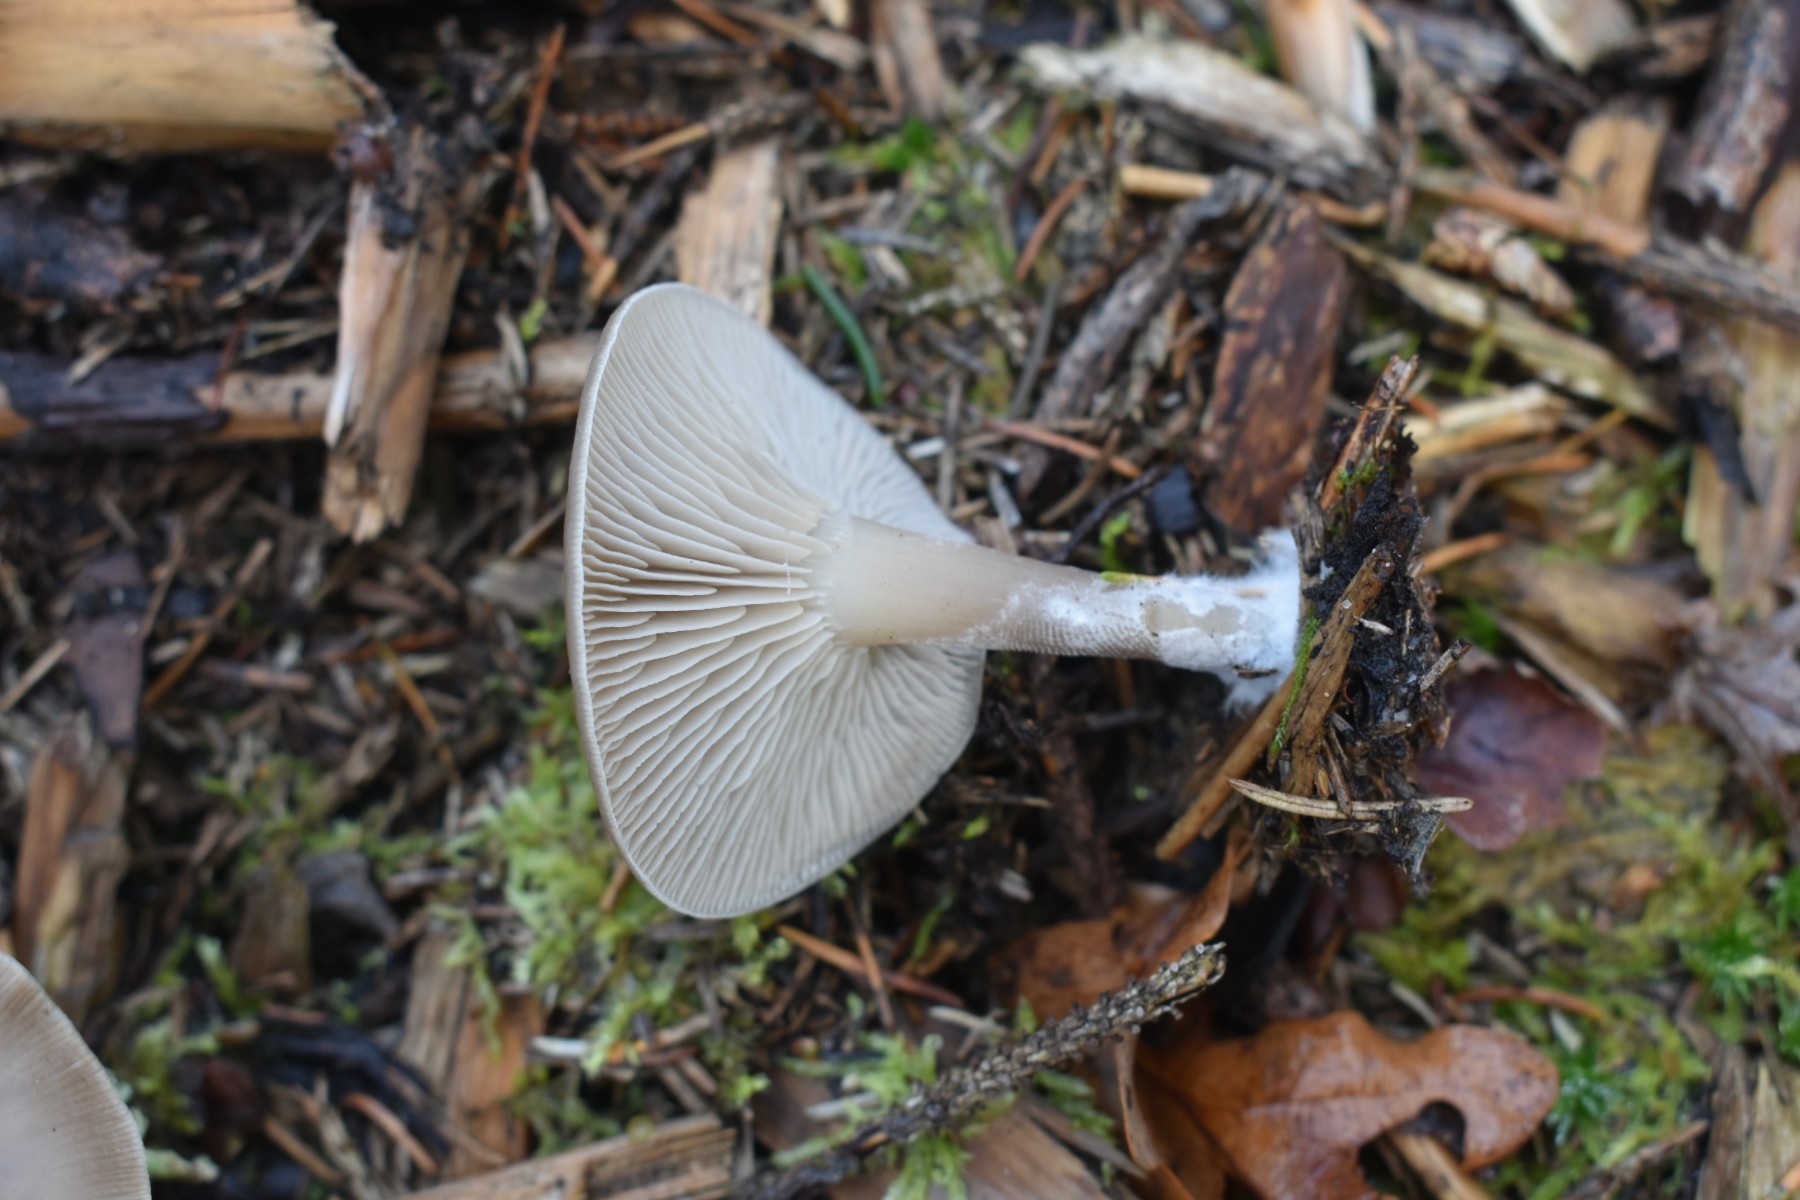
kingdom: Fungi
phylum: Basidiomycota
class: Agaricomycetes
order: Agaricales
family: Tricholomataceae
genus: Clitocybe
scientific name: Clitocybe metachroa
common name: grå tragthat
